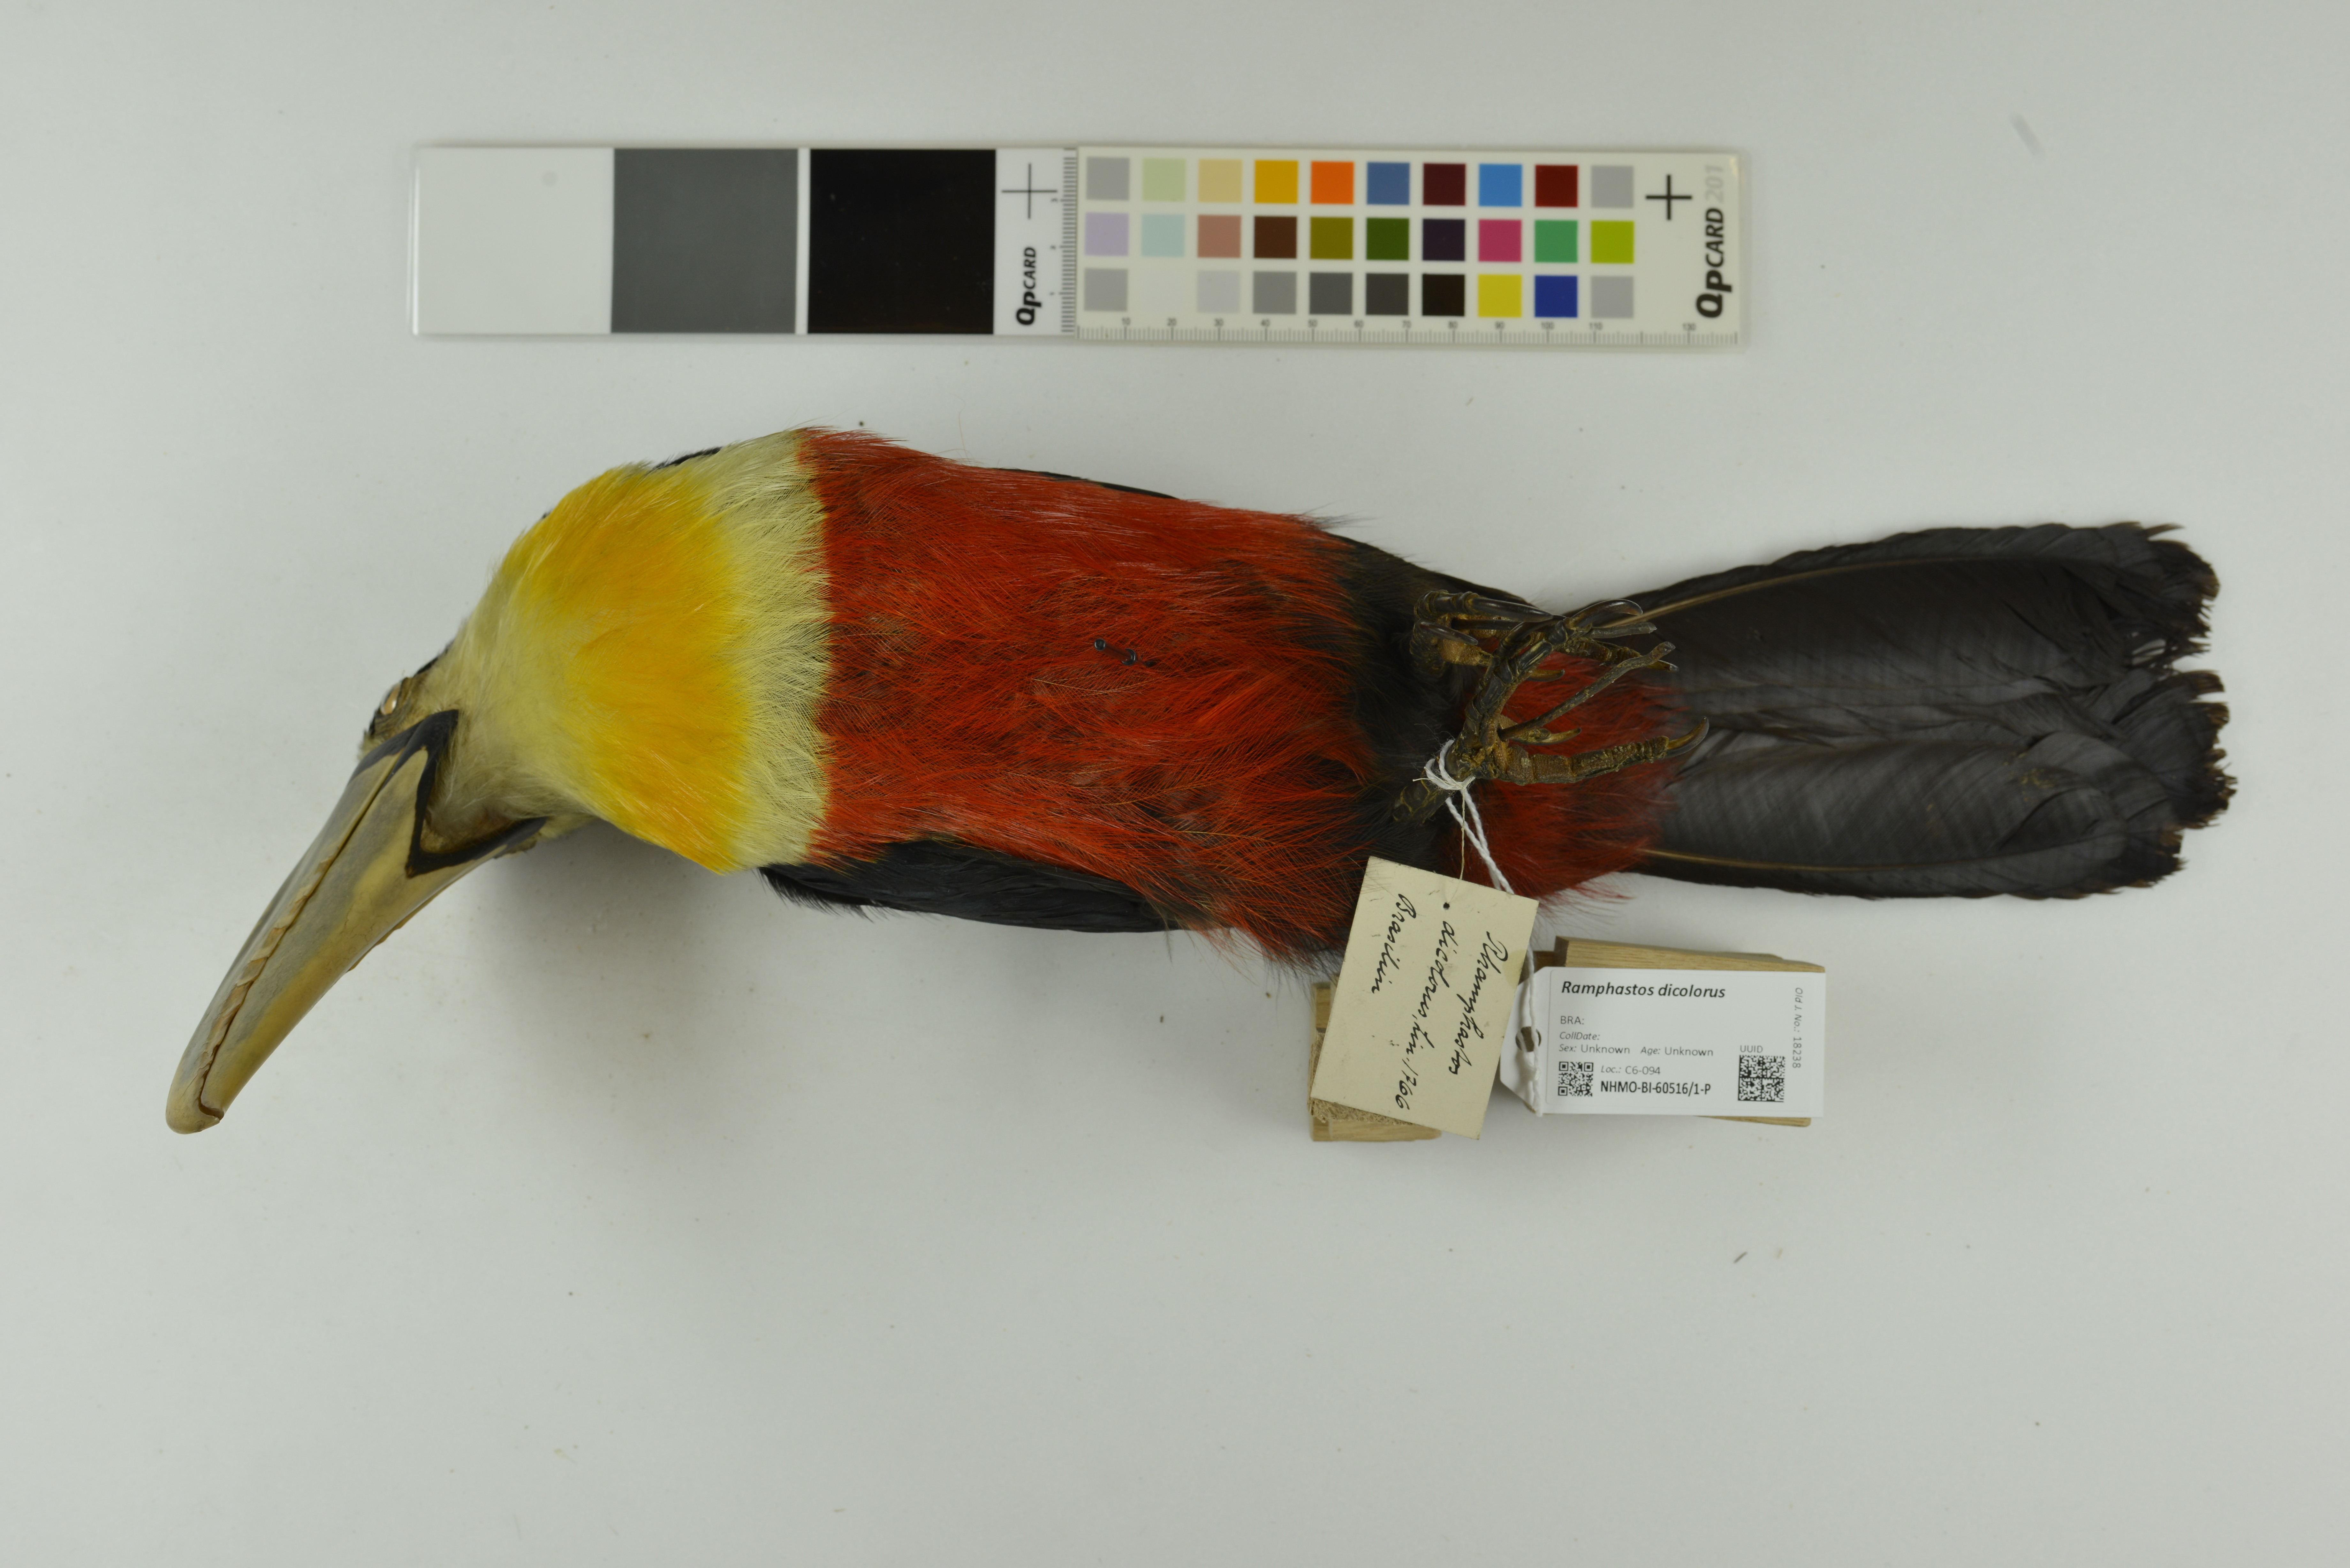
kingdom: Animalia
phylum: Chordata
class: Aves
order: Piciformes
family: Ramphastidae
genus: Ramphastos
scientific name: Ramphastos dicolorus
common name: Green-billed toucan
